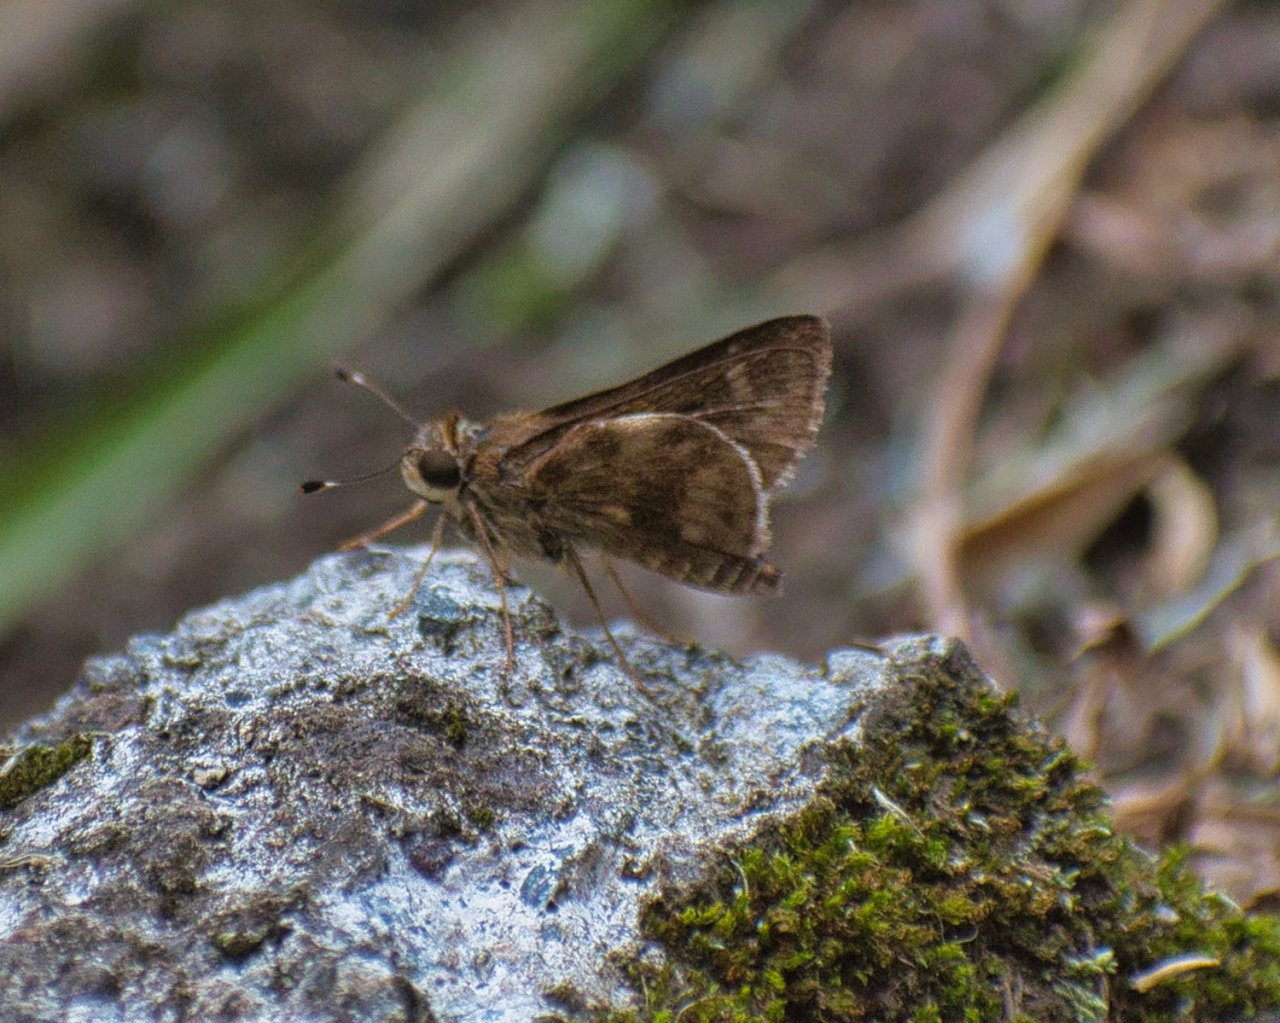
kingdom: Animalia
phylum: Arthropoda
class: Insecta
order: Lepidoptera
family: Hesperiidae
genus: Pompeius
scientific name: Pompeius pompeius
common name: Pompeius Skipper
